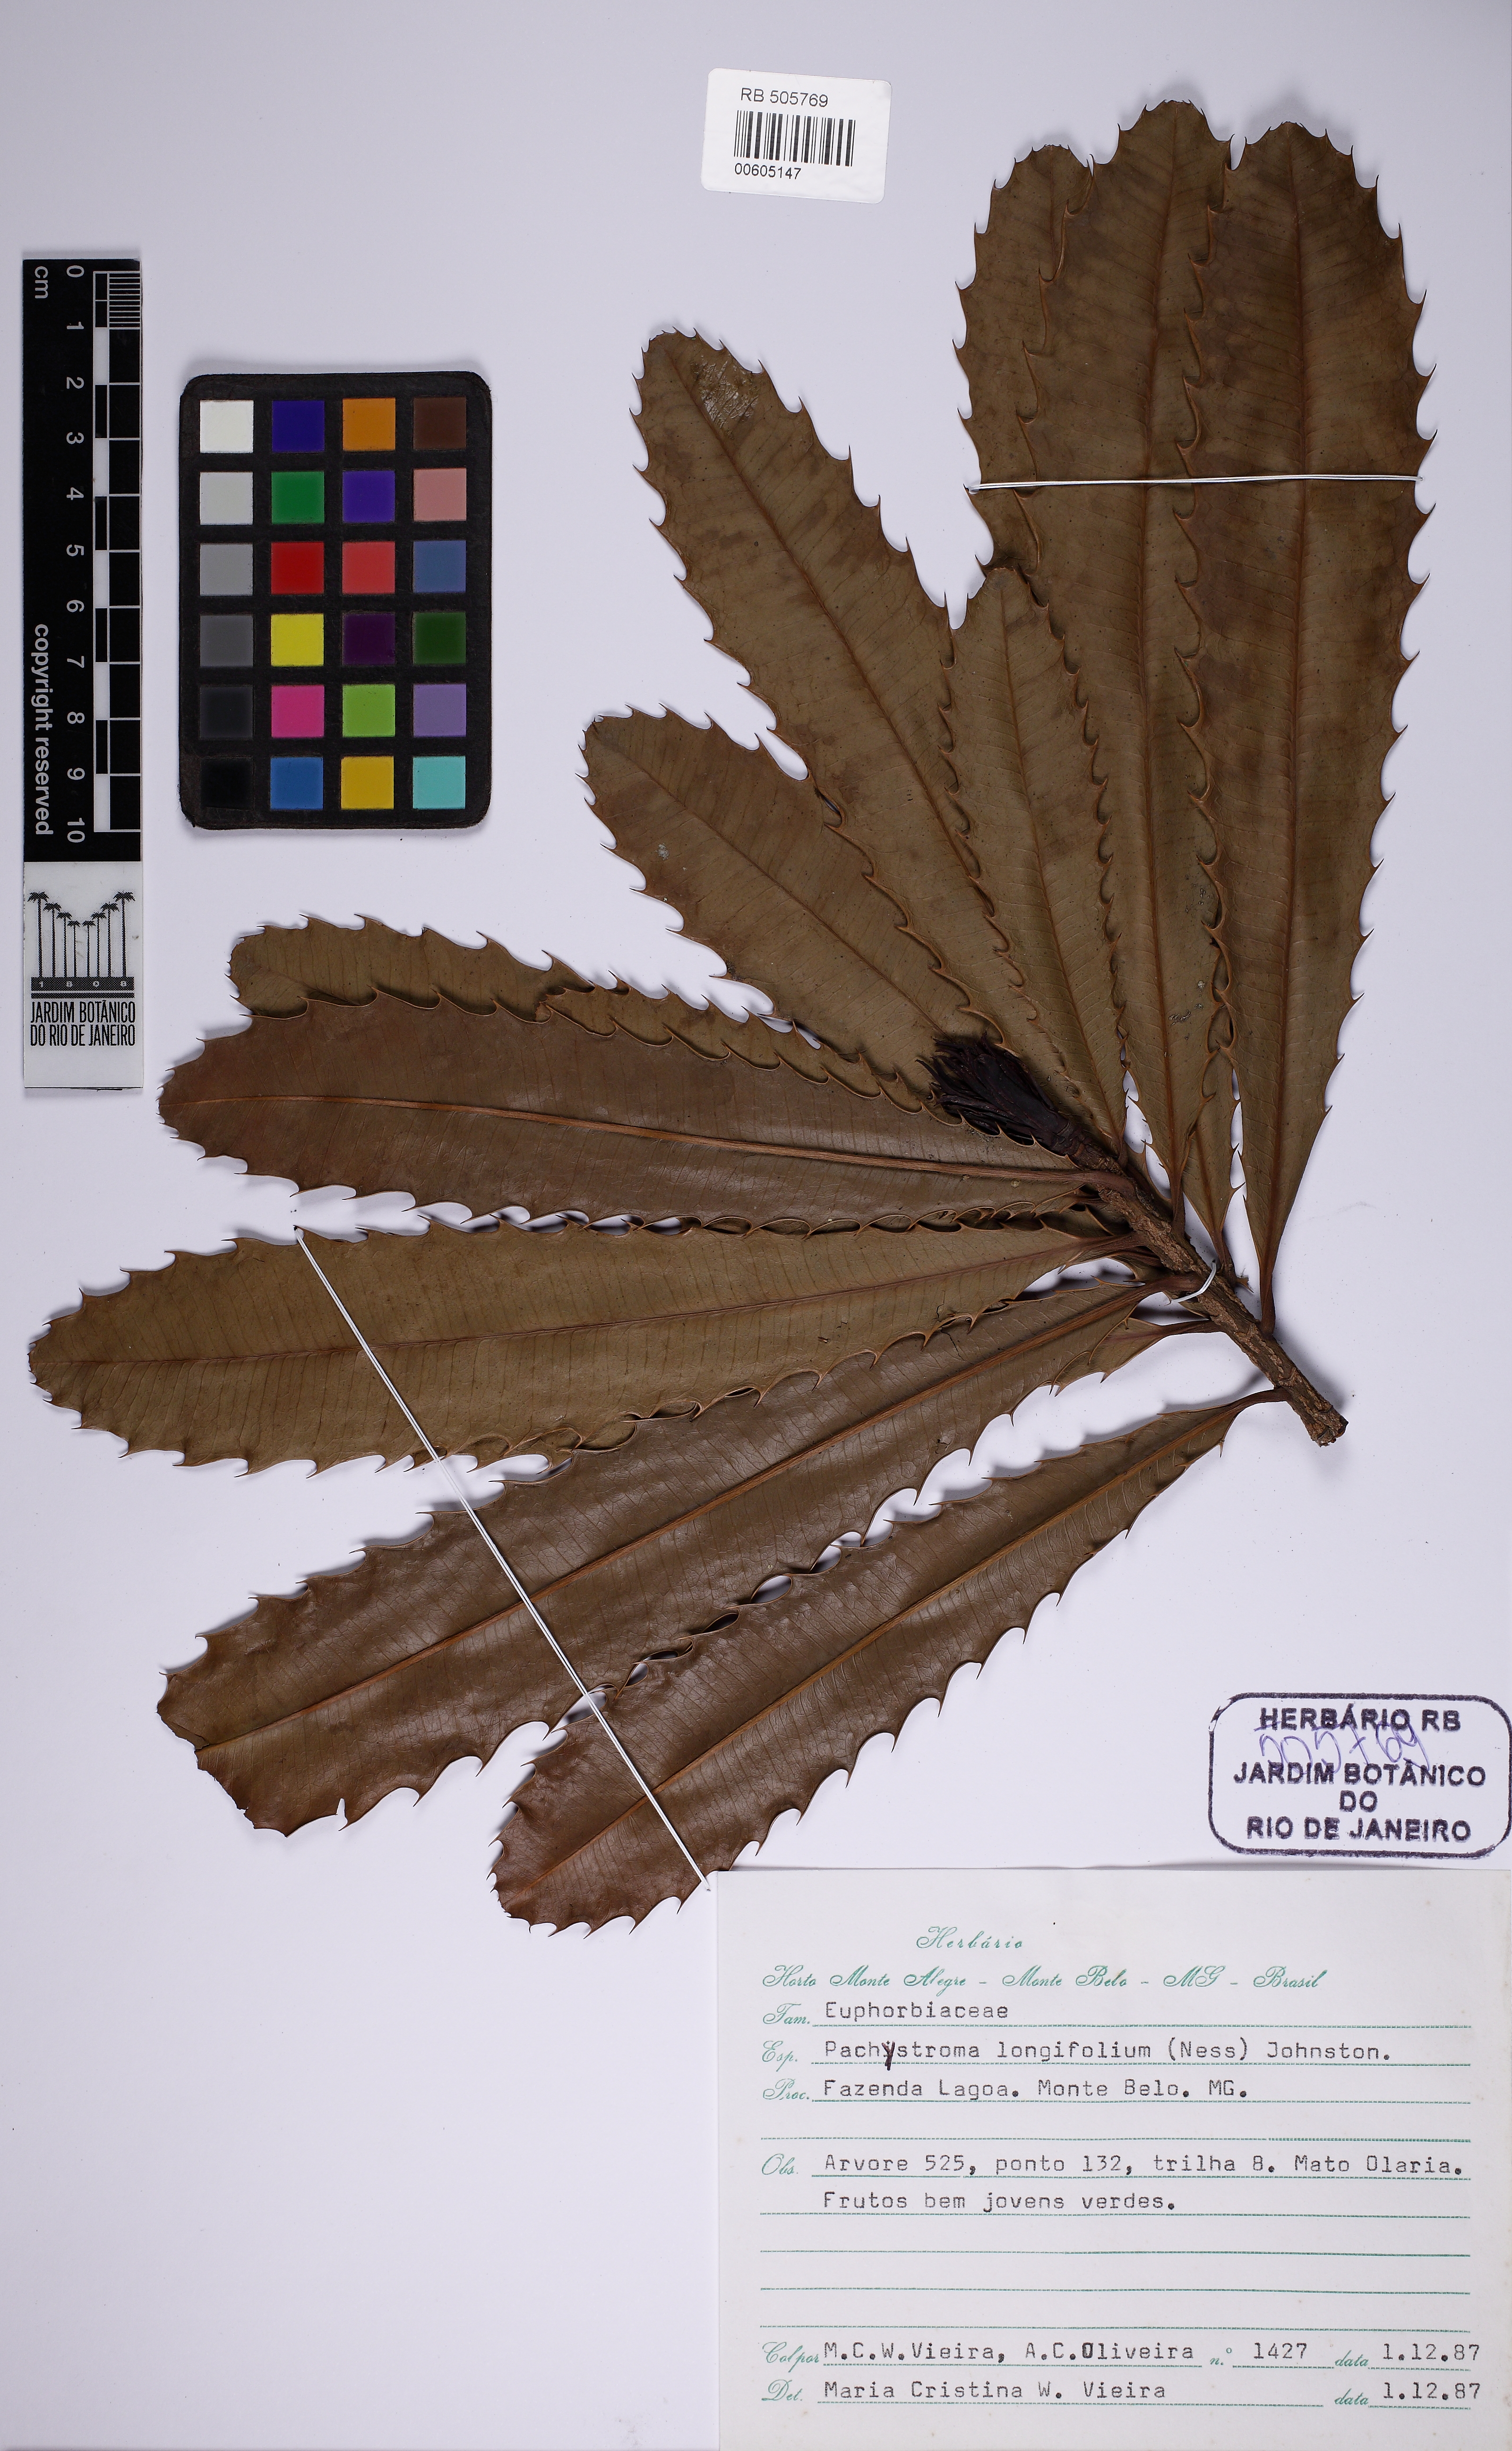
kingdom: Plantae
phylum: Tracheophyta
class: Magnoliopsida
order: Malpighiales
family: Euphorbiaceae
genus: Pachystroma
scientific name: Pachystroma longifolium
